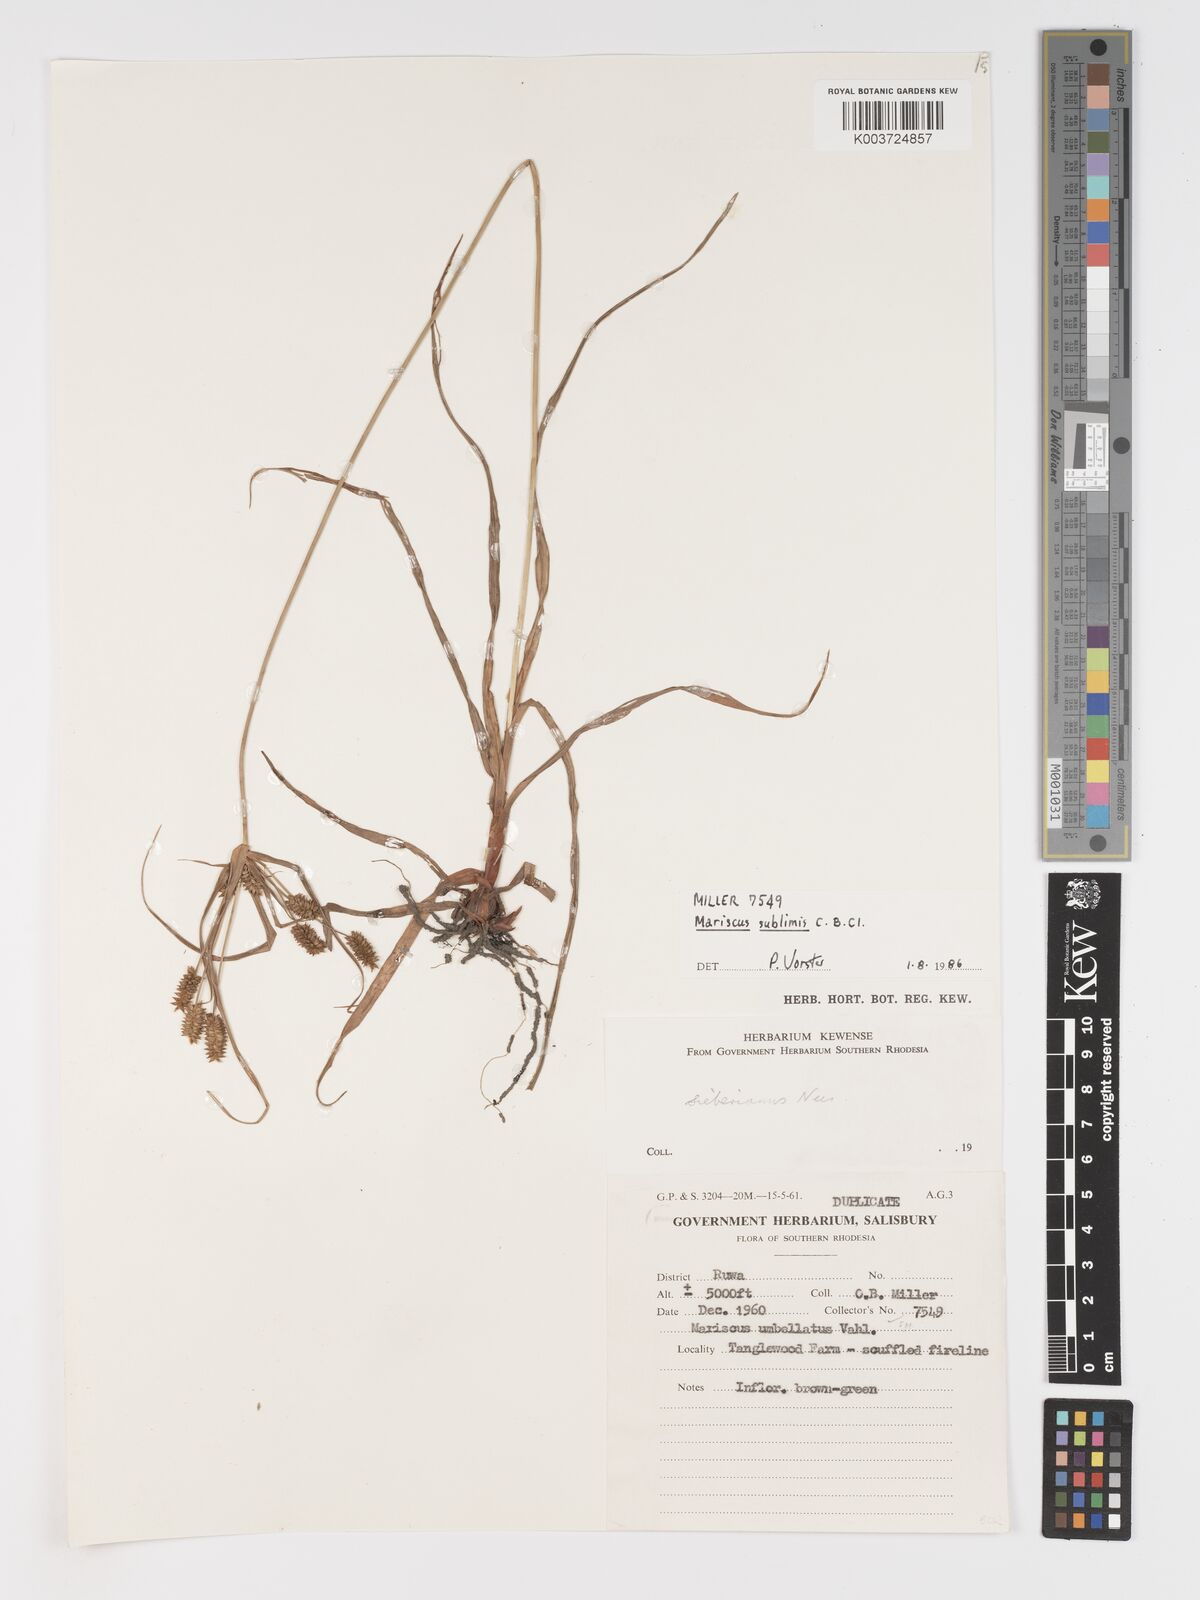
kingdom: Plantae
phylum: Tracheophyta
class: Liliopsida
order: Poales
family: Cyperaceae
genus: Cyperus
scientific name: Cyperus cyperoides
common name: Pacific island flat sedge
